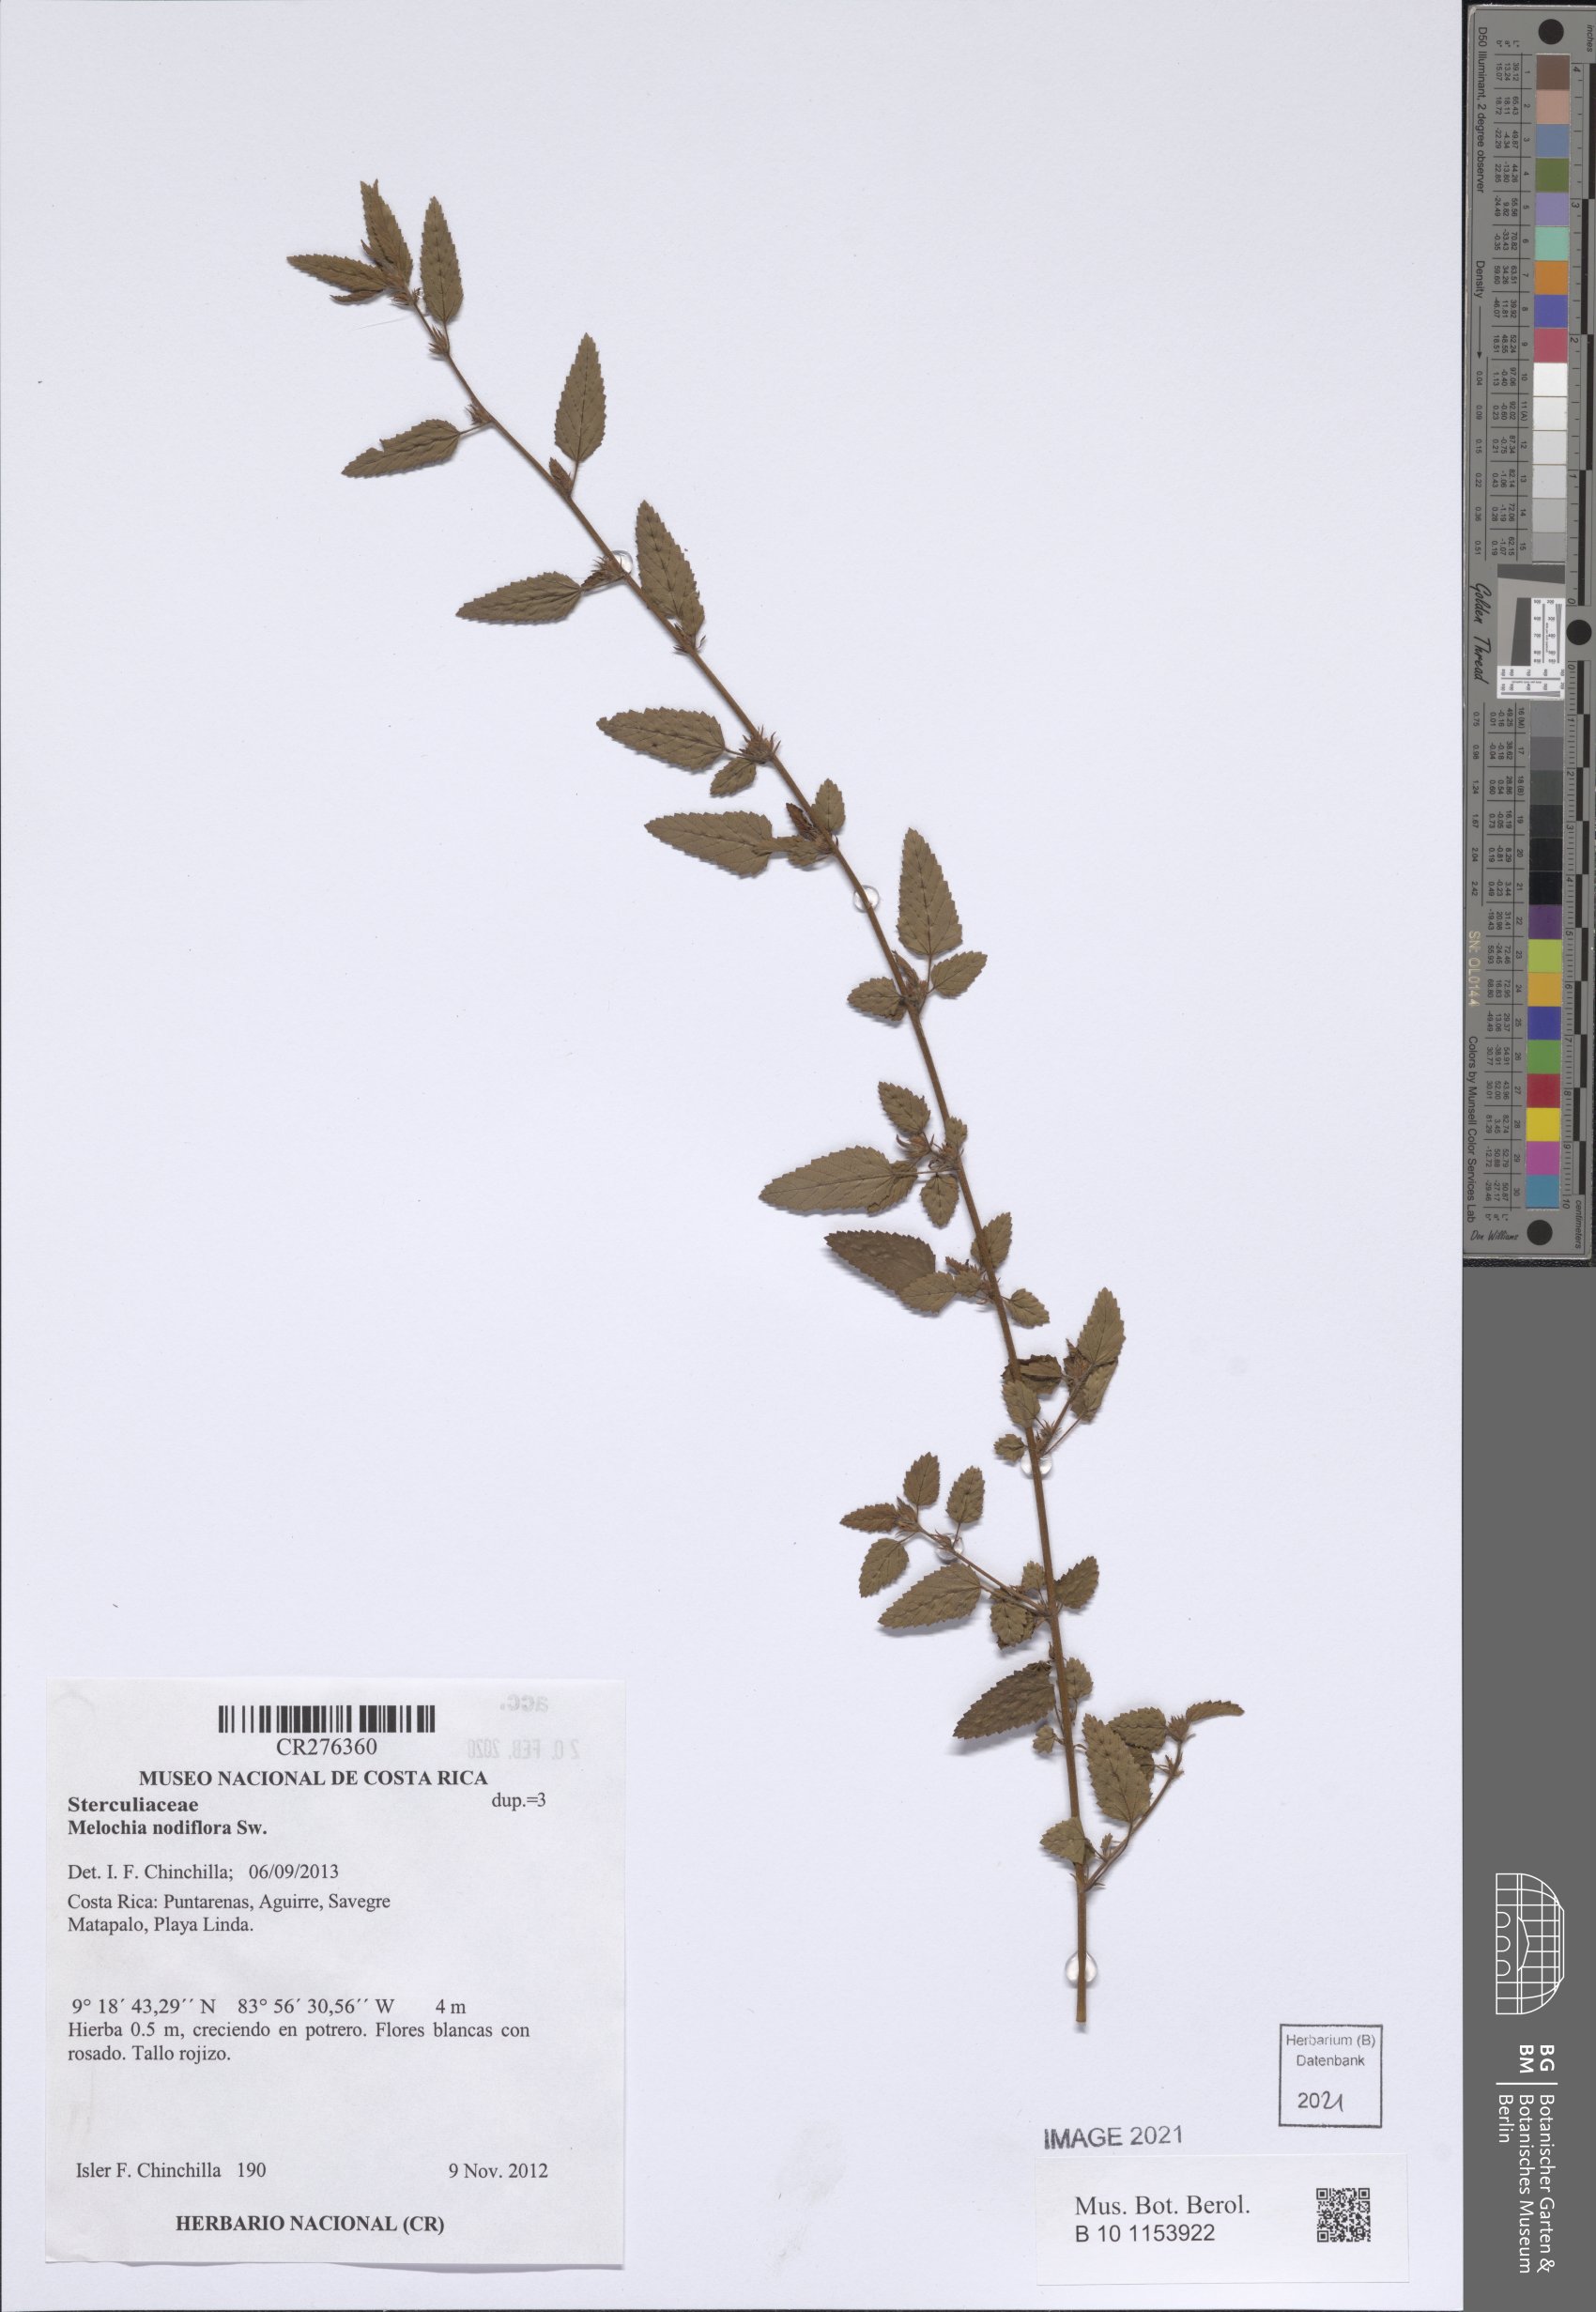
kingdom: Plantae
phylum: Tracheophyta
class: Magnoliopsida
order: Malvales
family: Malvaceae
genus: Melochia
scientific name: Melochia nodiflora
